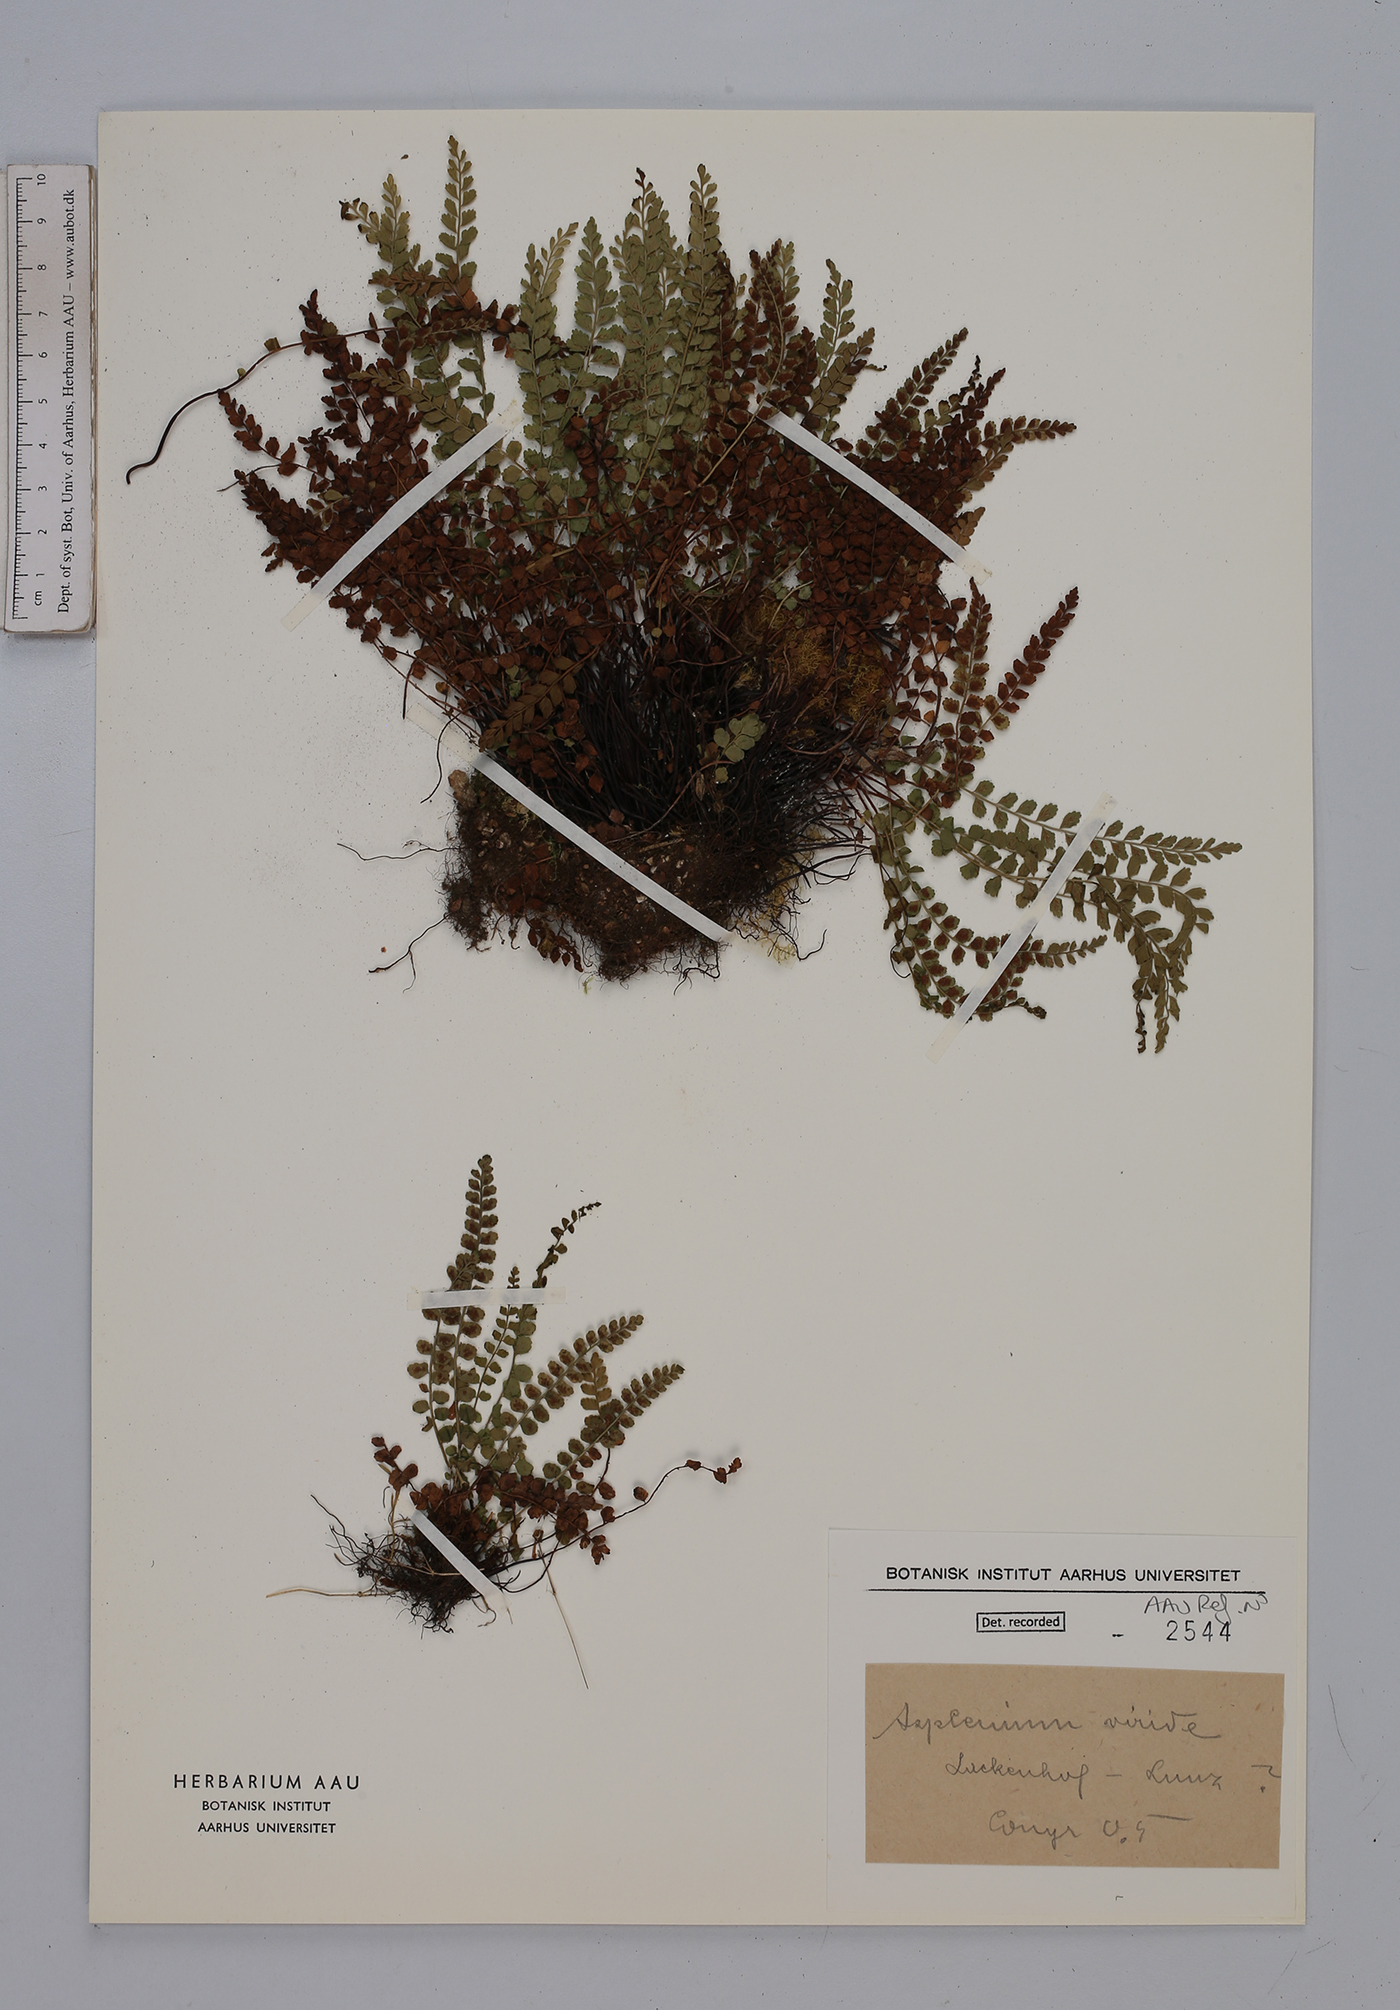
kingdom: Plantae
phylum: Tracheophyta
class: Polypodiopsida
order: Polypodiales
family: Aspleniaceae
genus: Asplenium
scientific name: Asplenium viride
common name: Green spleenwort
